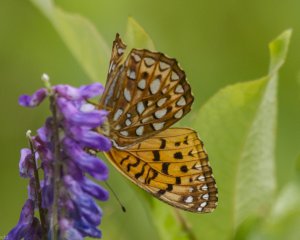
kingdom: Animalia
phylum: Arthropoda
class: Insecta
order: Lepidoptera
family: Nymphalidae
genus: Speyeria
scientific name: Speyeria atlantis
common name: Atlantis Fritillary
